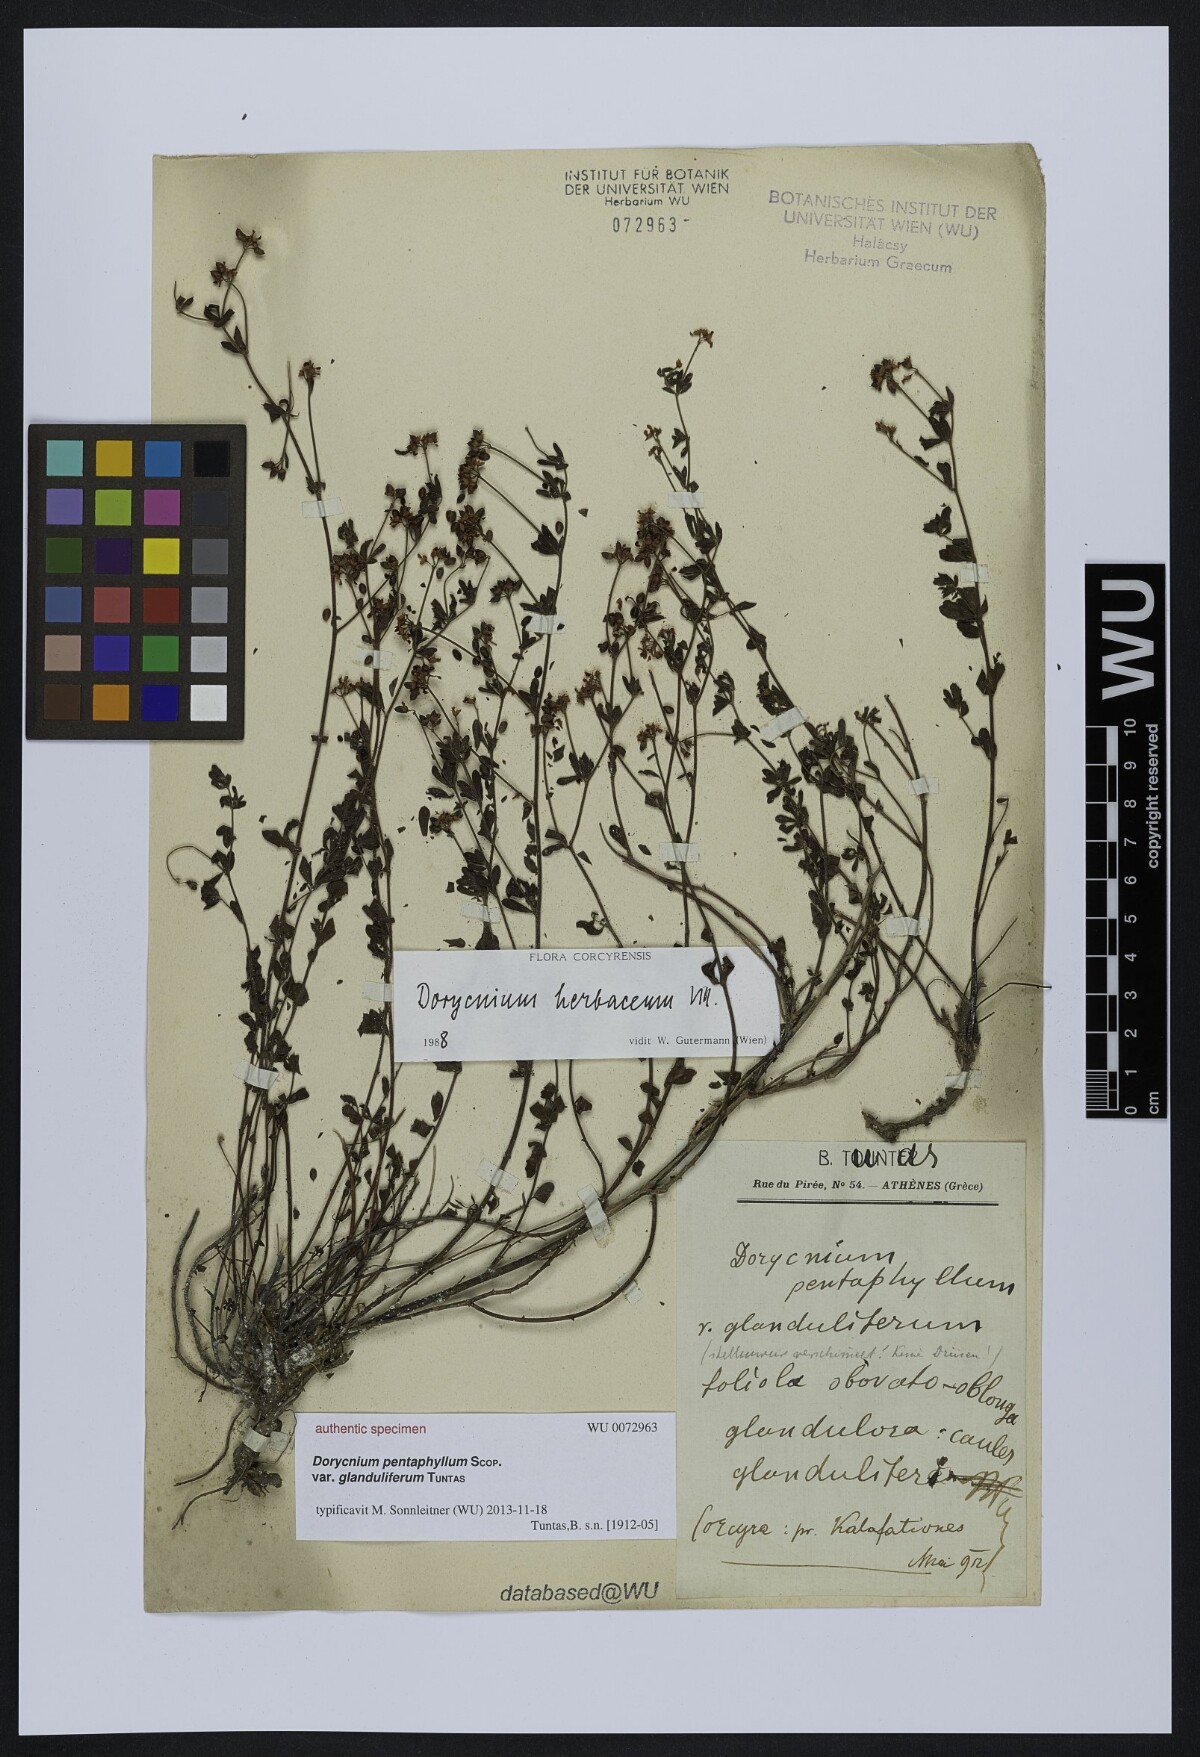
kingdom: Plantae
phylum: Tracheophyta
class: Magnoliopsida
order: Fabales
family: Fabaceae
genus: Lotus
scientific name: Lotus dorycnium
